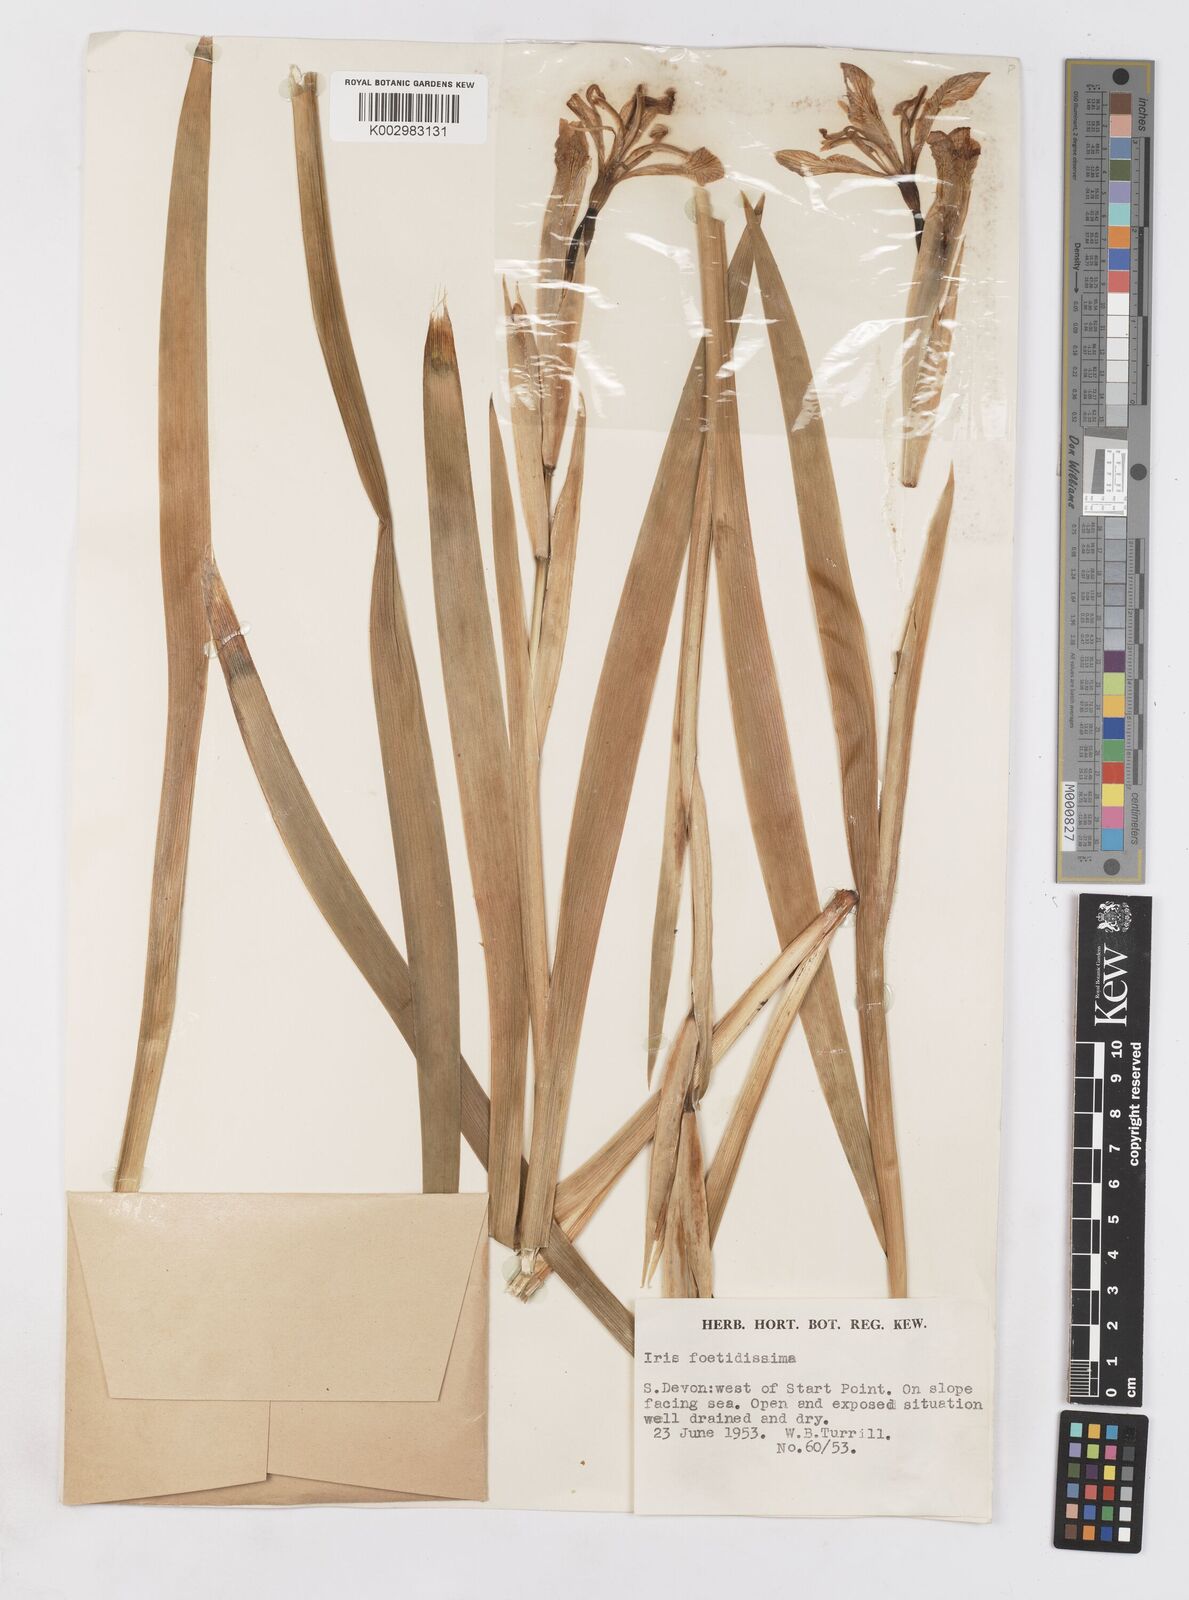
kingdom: Plantae
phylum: Tracheophyta
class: Liliopsida
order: Asparagales
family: Iridaceae
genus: Iris
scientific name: Iris foetidissima
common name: Stinking iris
